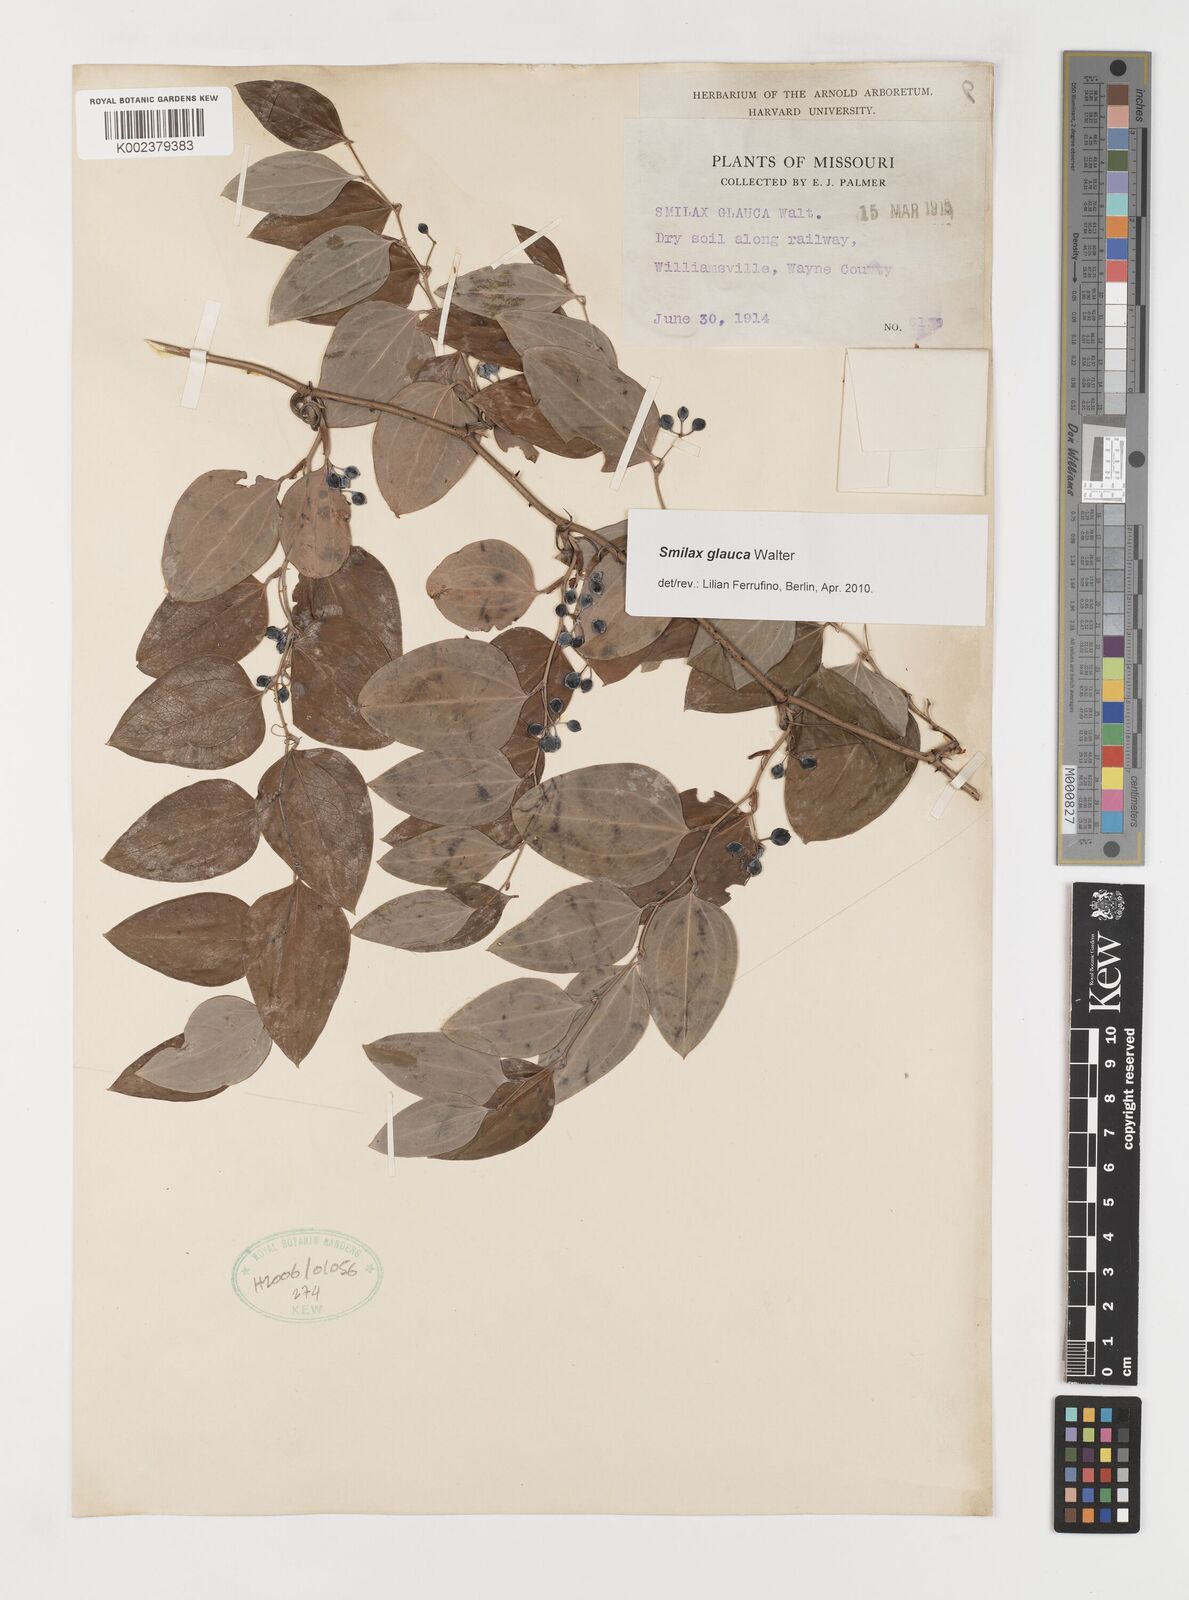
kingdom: Plantae
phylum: Tracheophyta
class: Liliopsida
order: Liliales
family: Smilacaceae
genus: Smilax
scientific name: Smilax glauca
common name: Cat greenbrier
